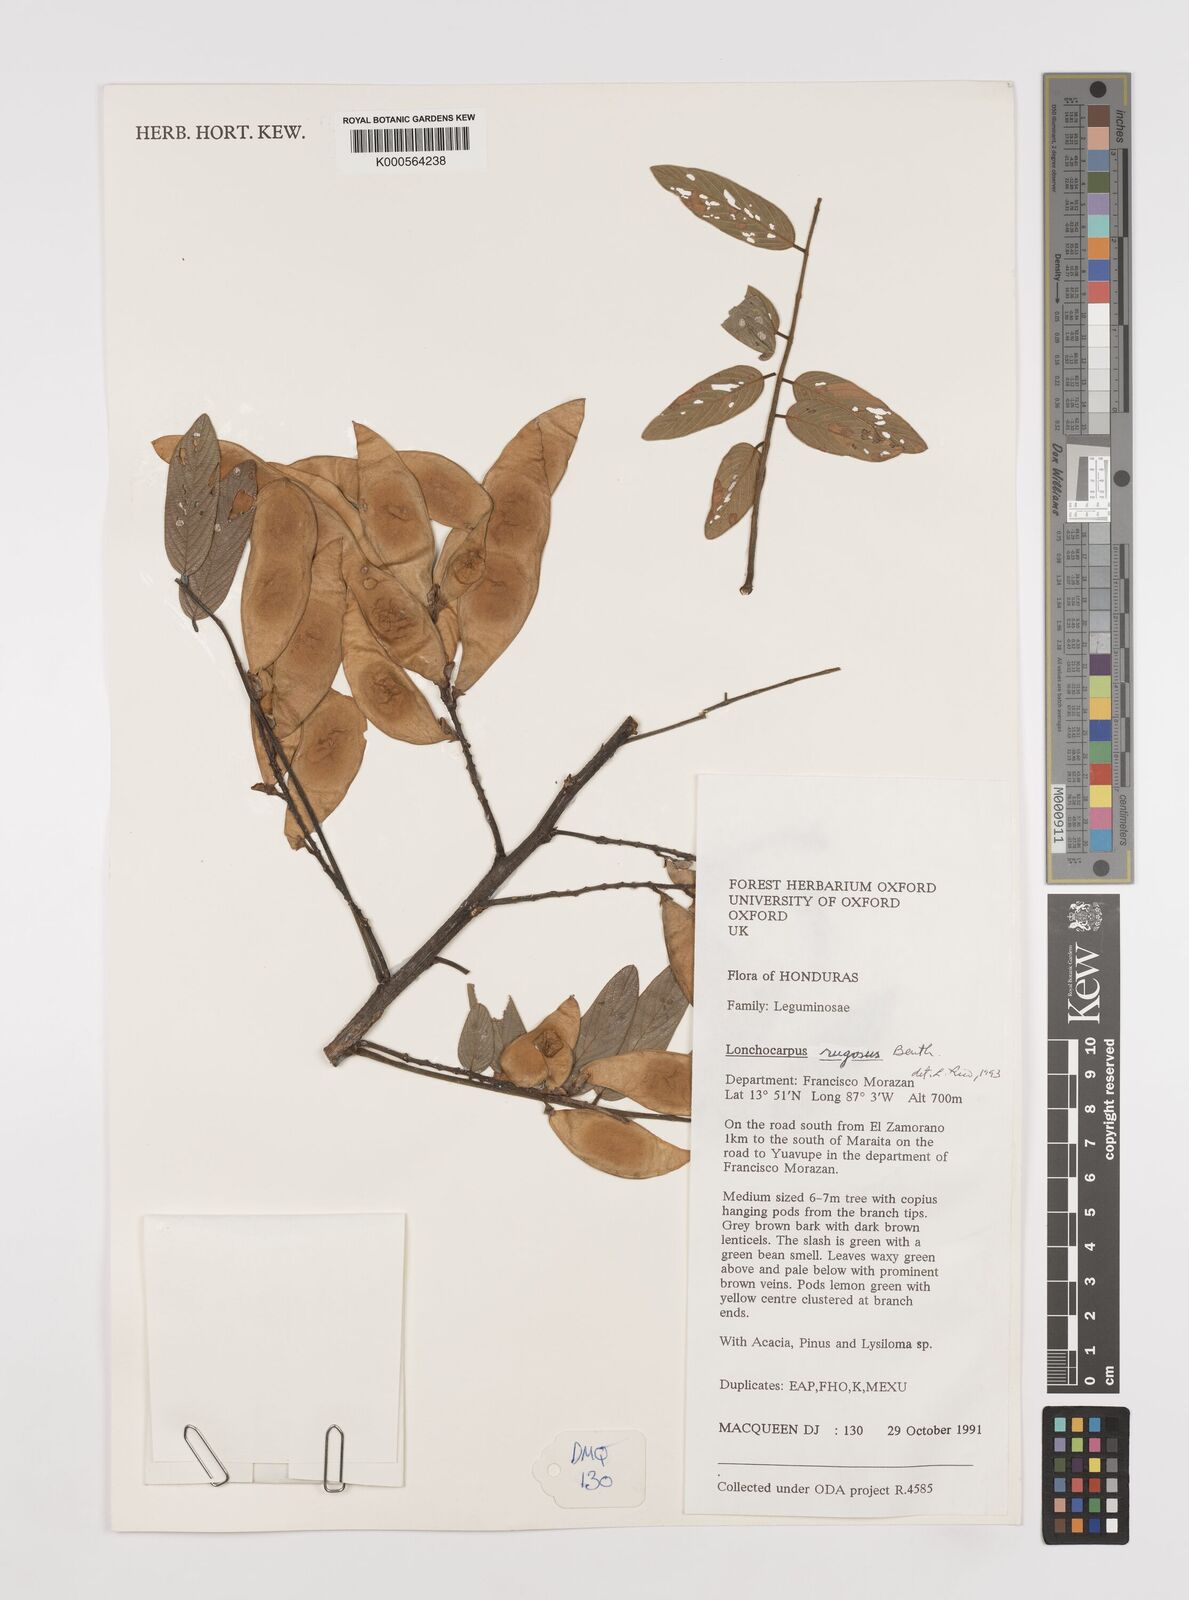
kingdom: Plantae
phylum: Tracheophyta
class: Magnoliopsida
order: Fabales
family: Fabaceae
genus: Lonchocarpus
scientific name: Lonchocarpus
